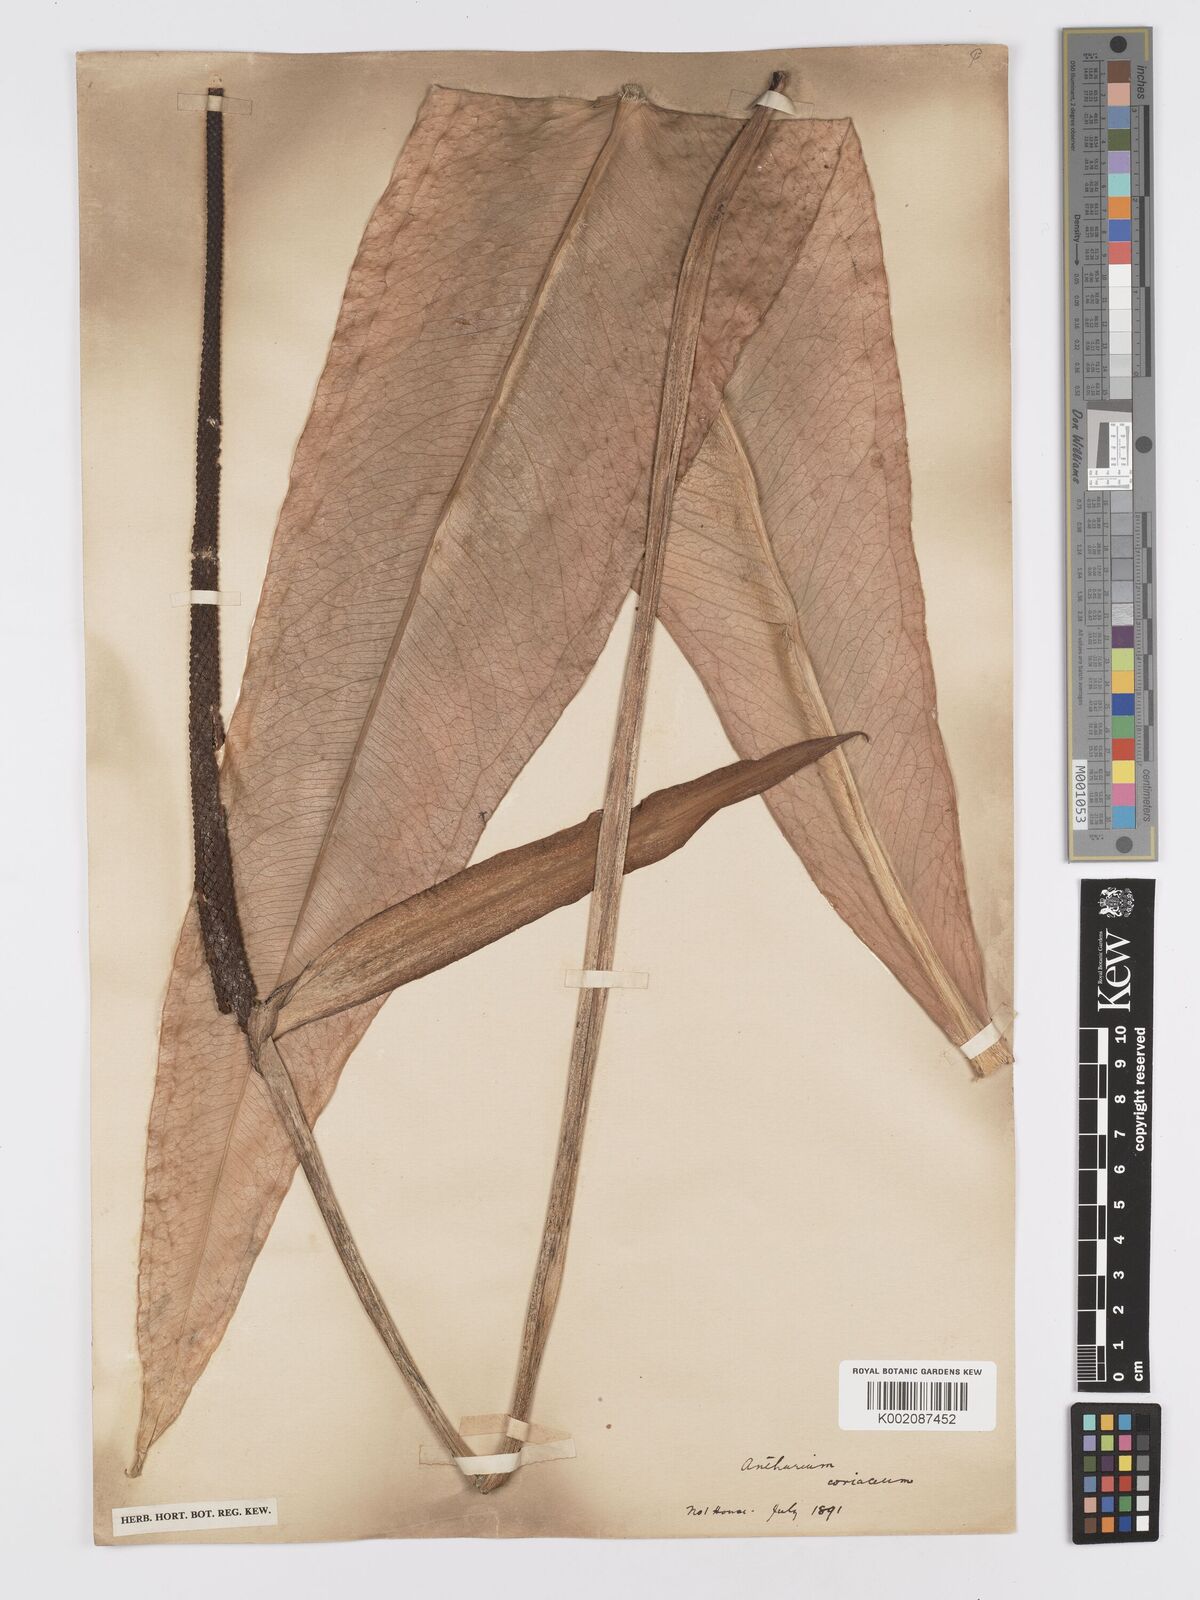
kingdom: Plantae
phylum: Tracheophyta
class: Liliopsida
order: Alismatales
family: Araceae
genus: Anthurium
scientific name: Anthurium
